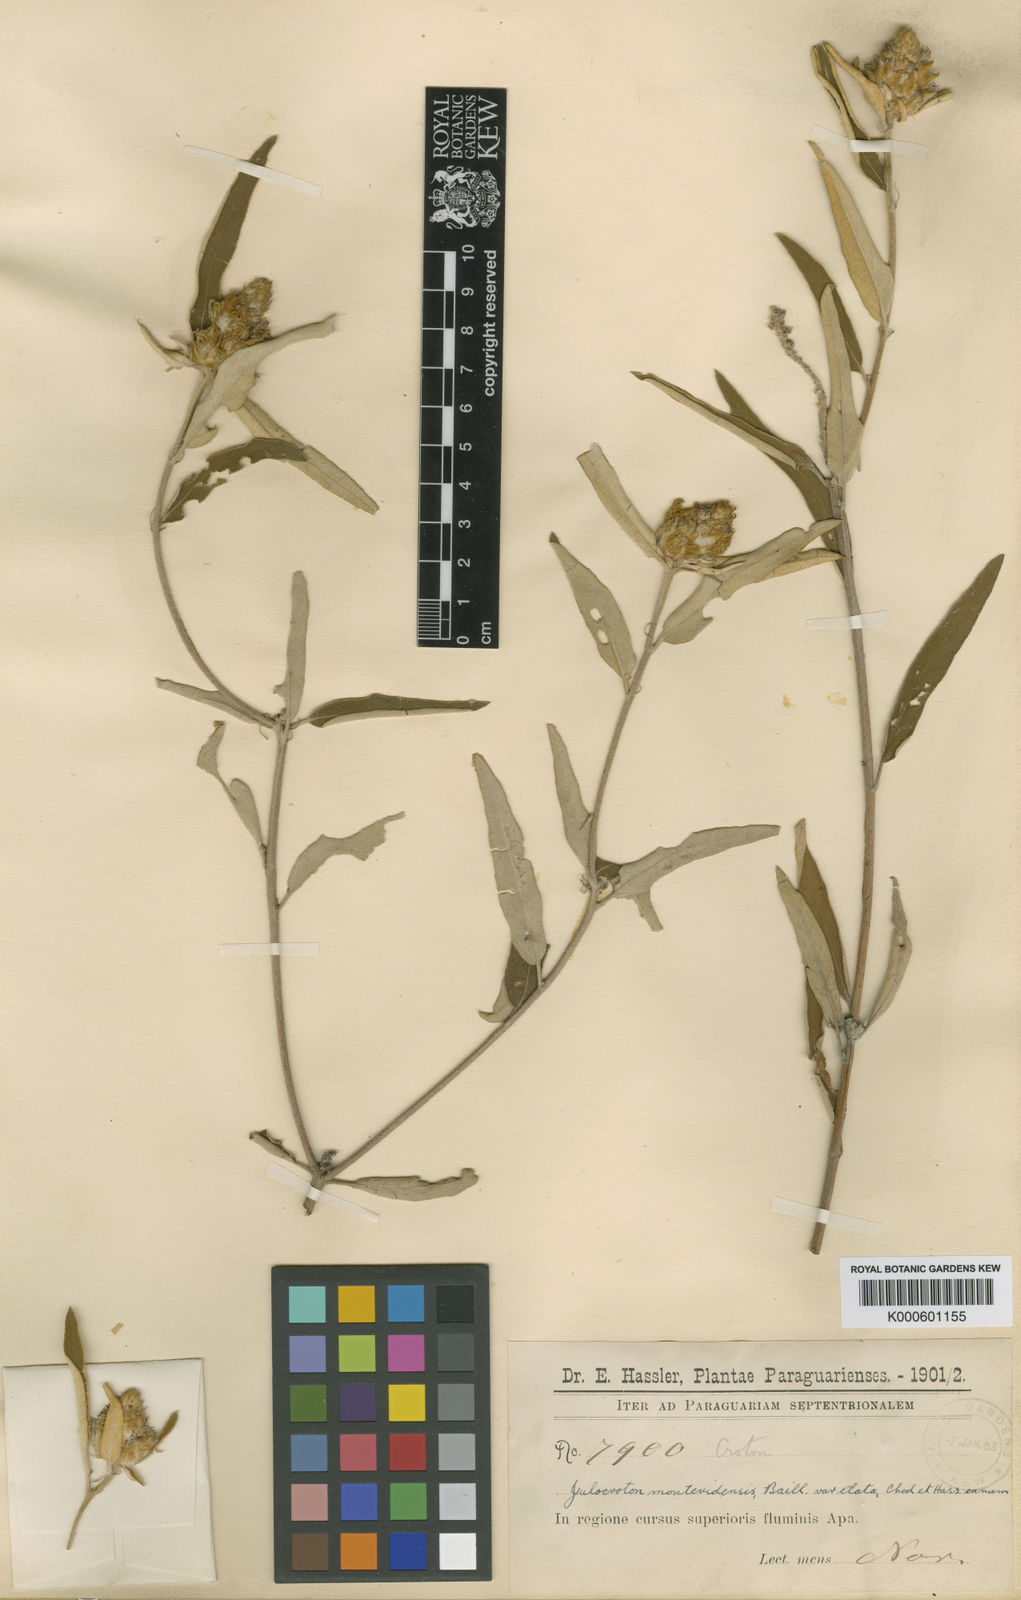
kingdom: Plantae
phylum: Tracheophyta
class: Magnoliopsida
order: Malpighiales
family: Euphorbiaceae
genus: Croton
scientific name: Croton argenteus
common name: Silver july croton
